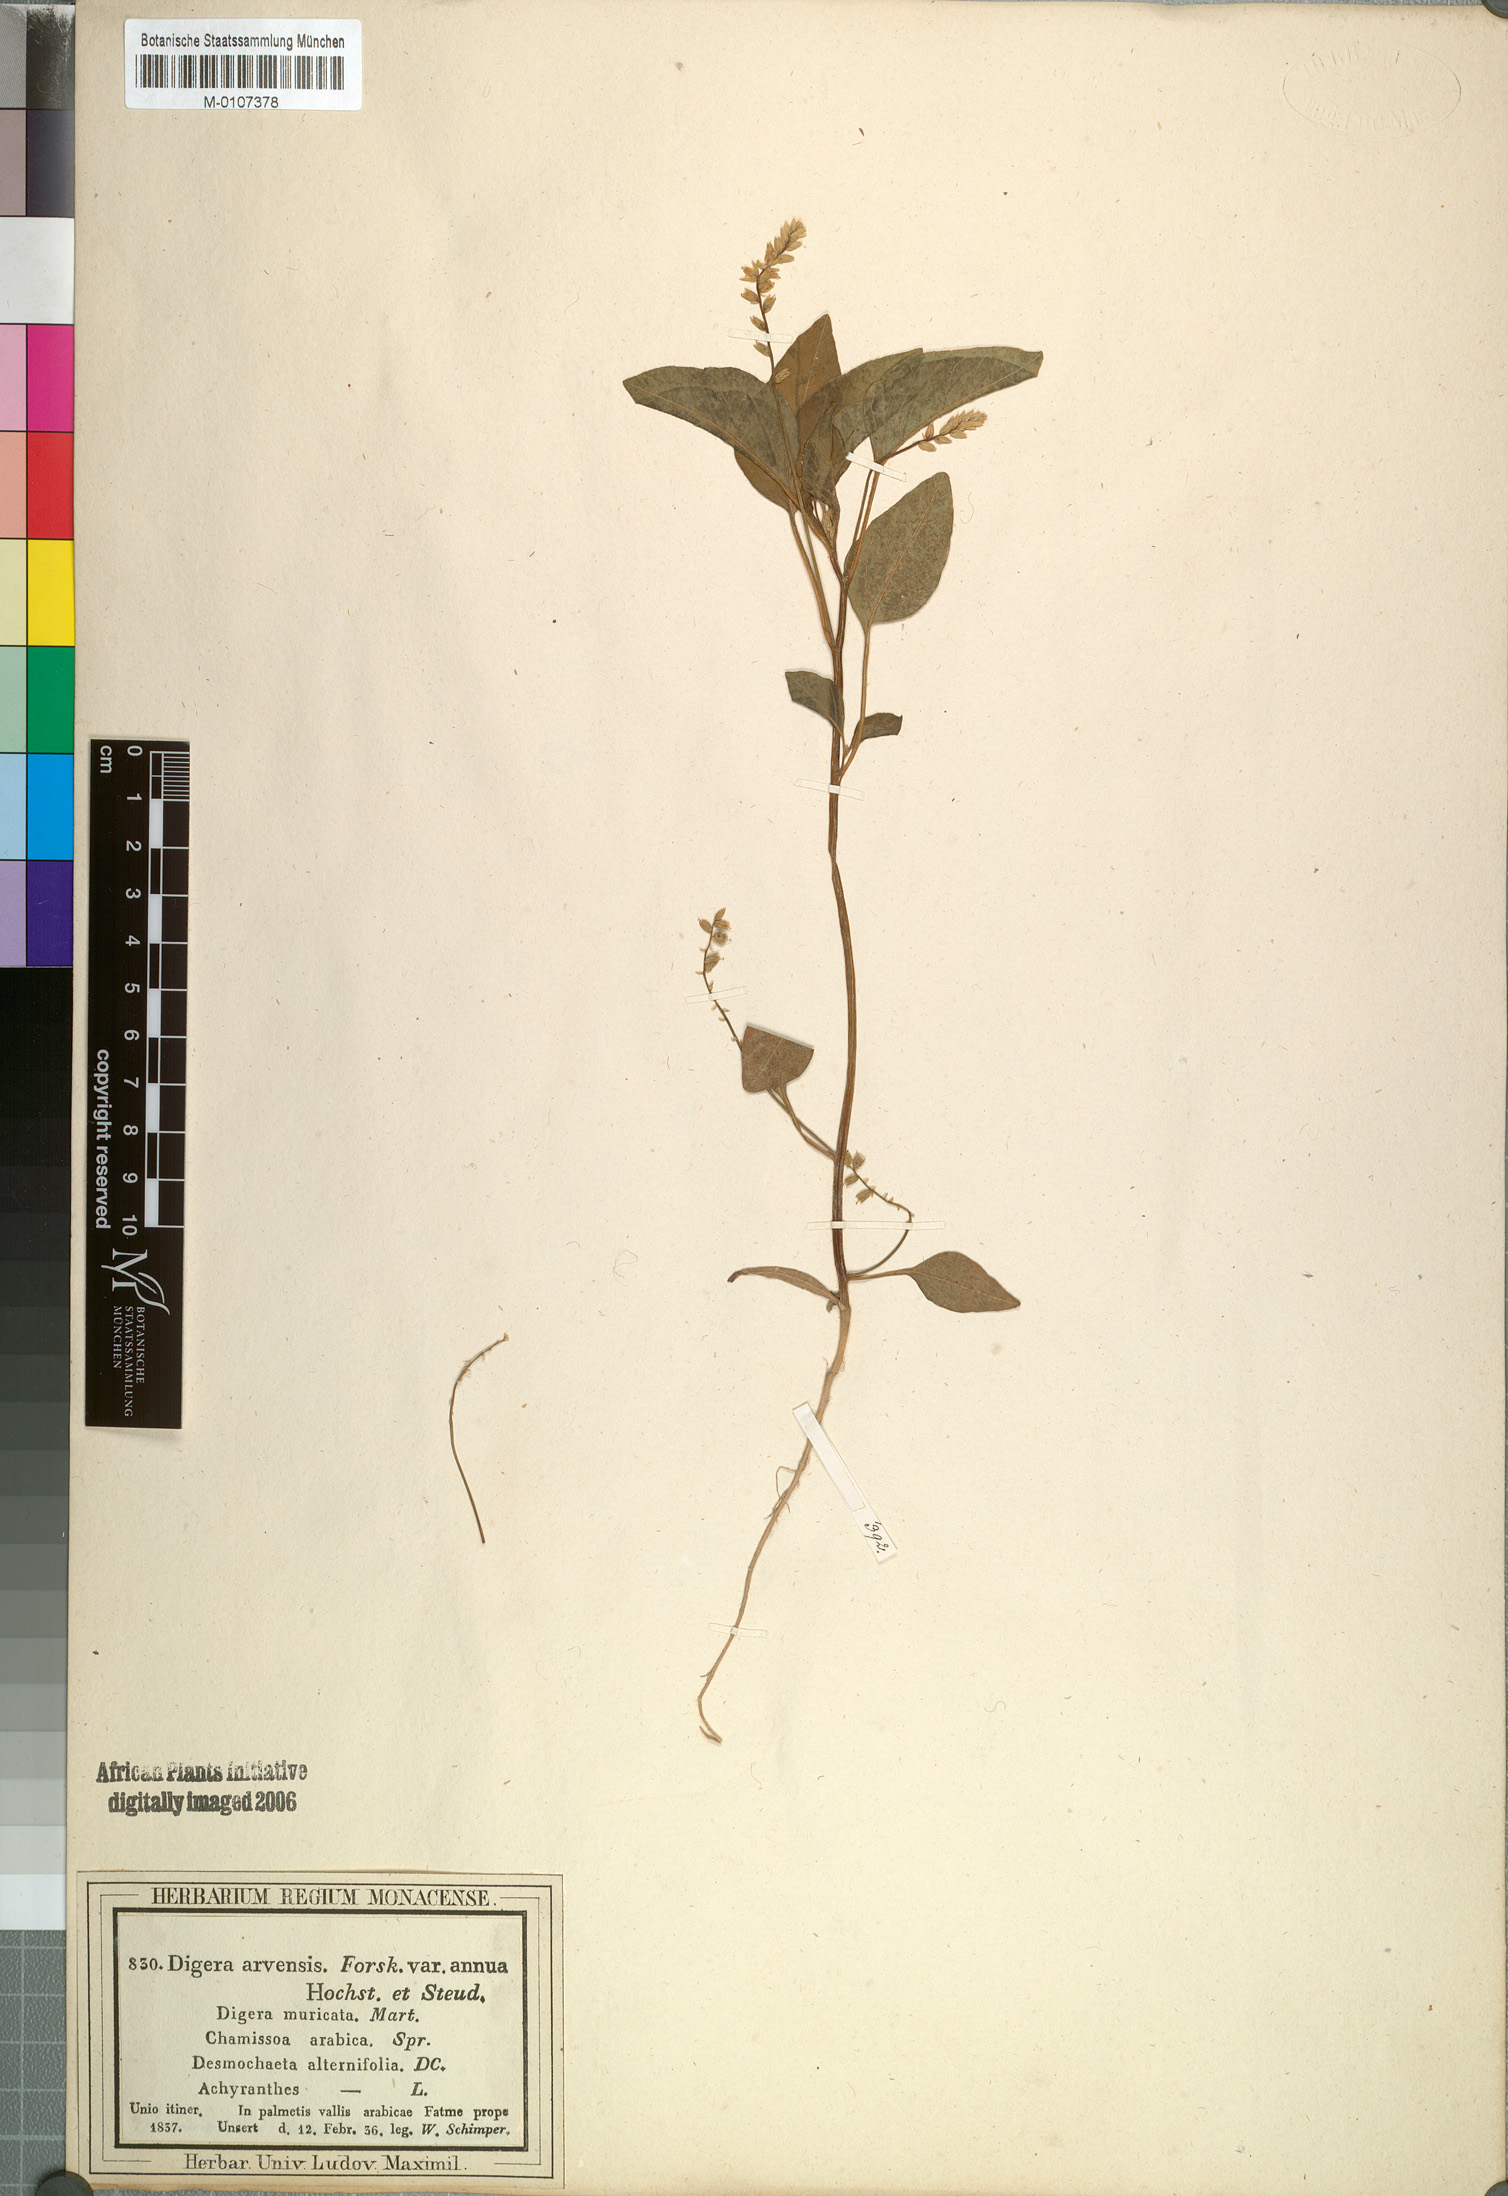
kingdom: Plantae
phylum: Tracheophyta
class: Magnoliopsida
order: Caryophyllales
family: Amaranthaceae
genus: Digera
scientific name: Digera muricata
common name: False amaranth
